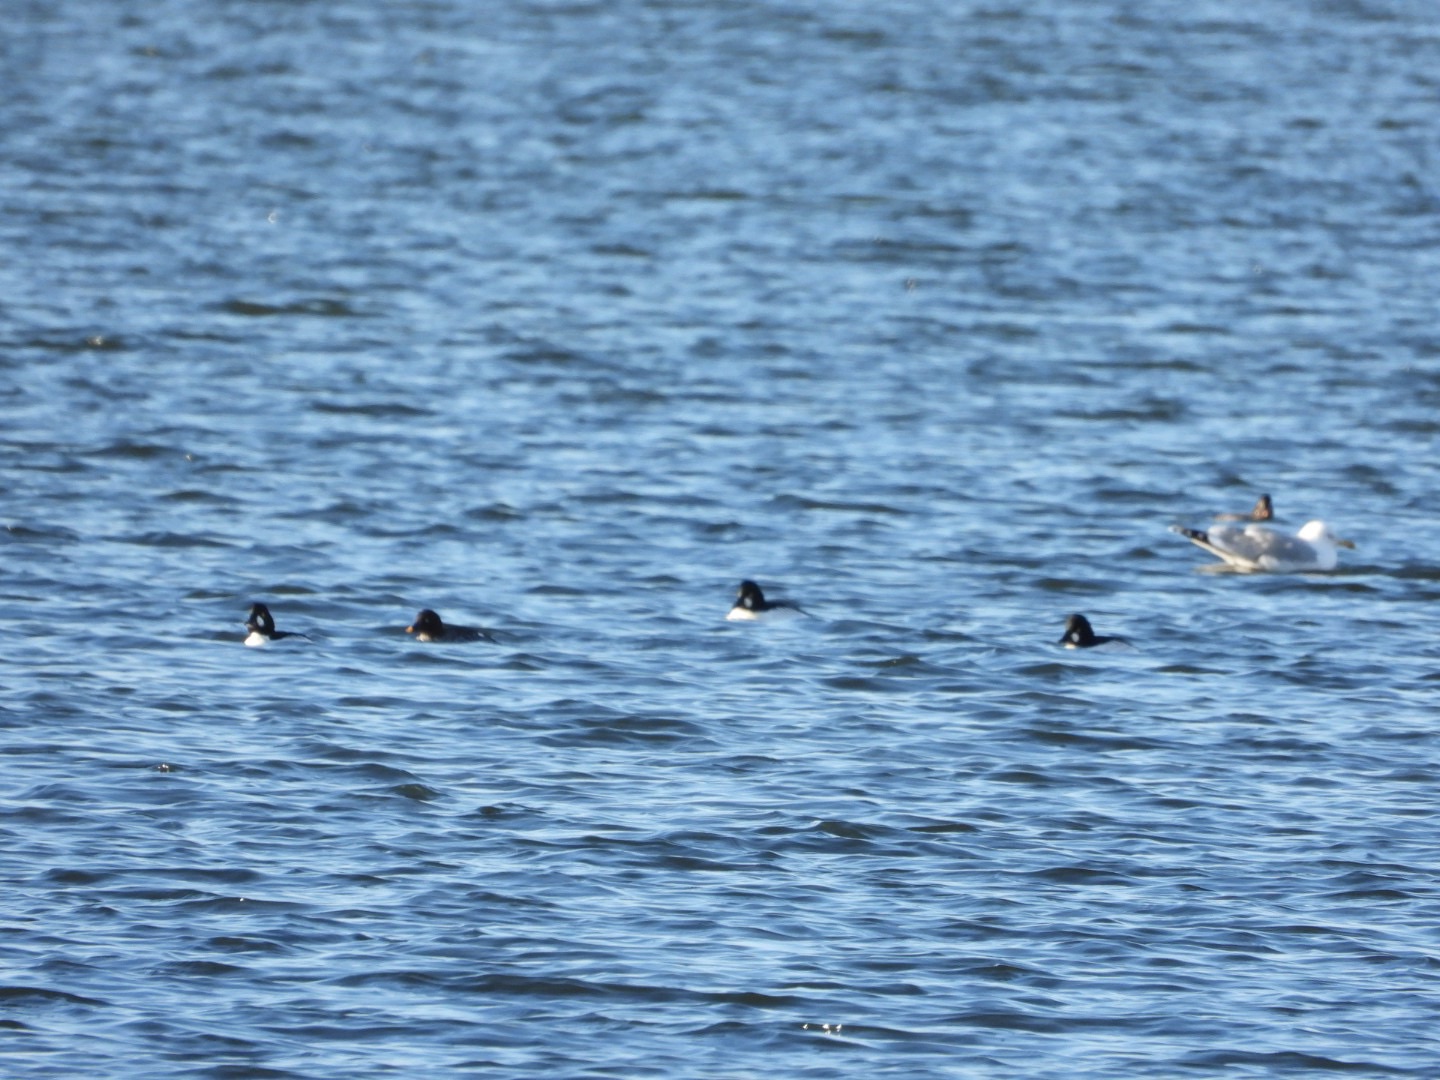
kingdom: Animalia
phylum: Chordata
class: Aves
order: Anseriformes
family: Anatidae
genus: Bucephala
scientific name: Bucephala clangula
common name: Hvinand
